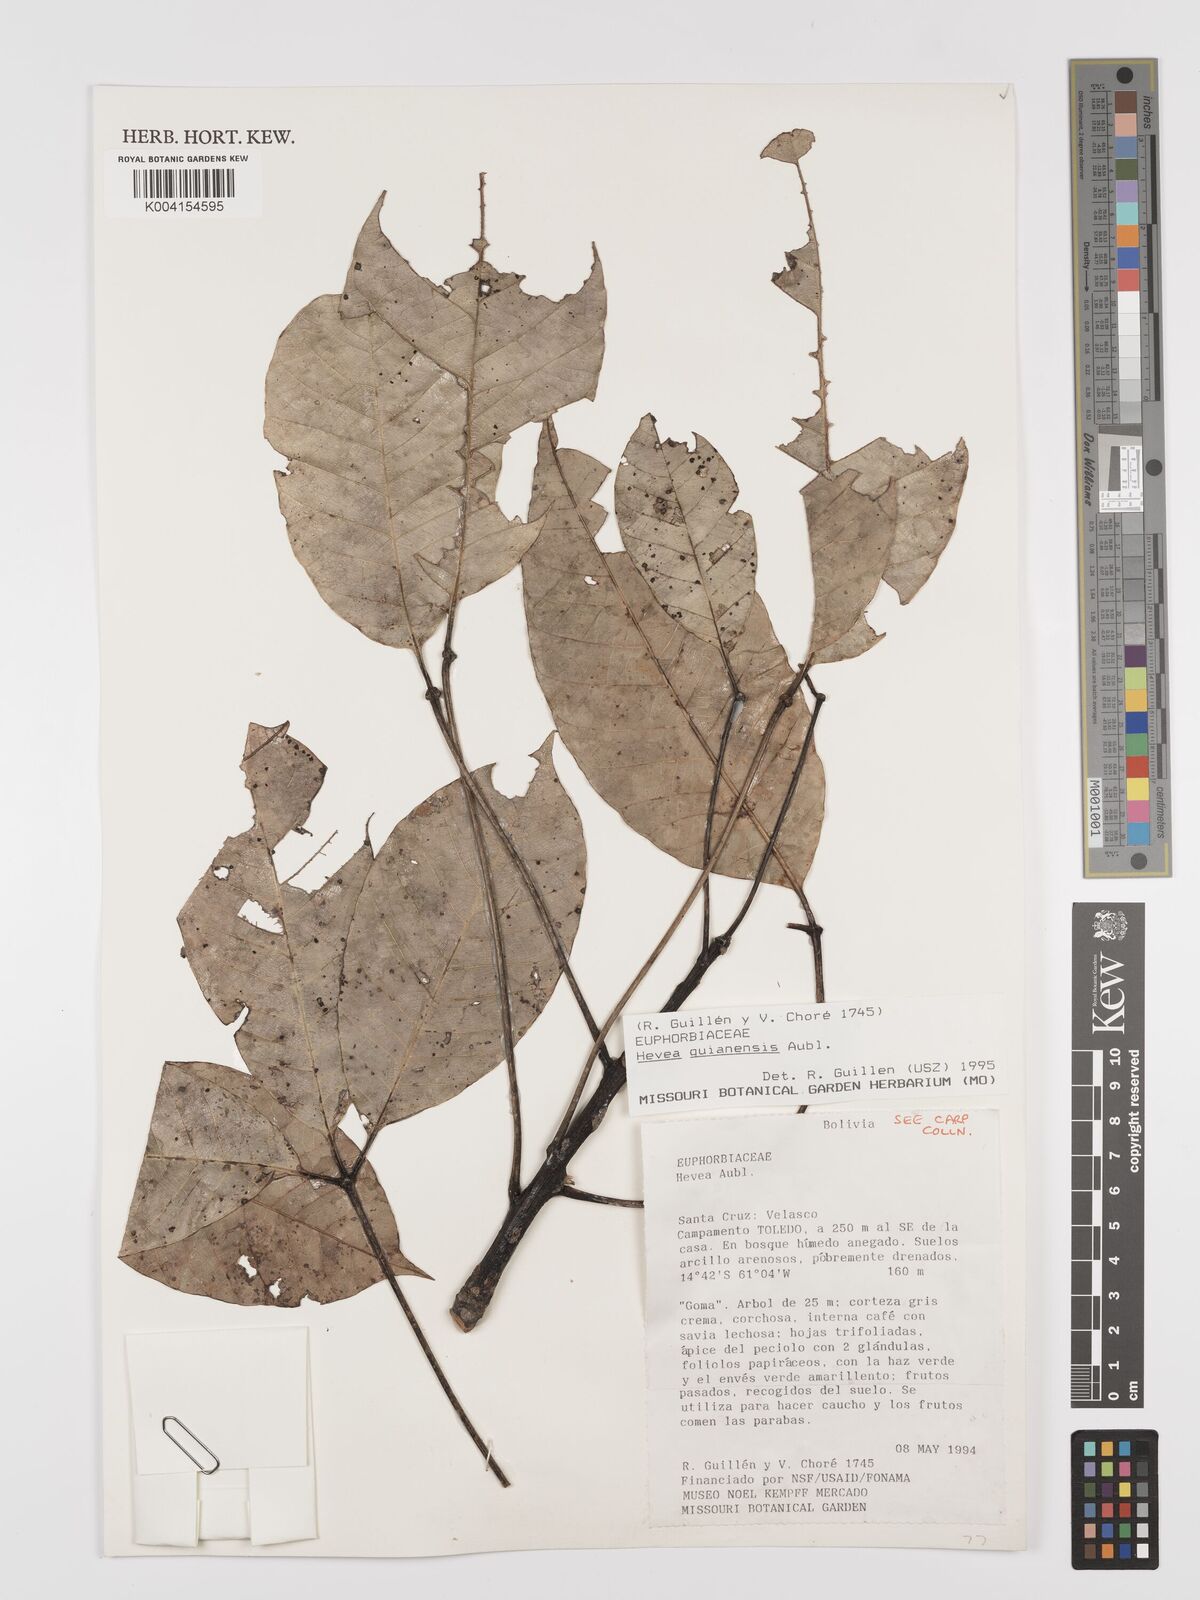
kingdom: Plantae
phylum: Tracheophyta
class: Magnoliopsida
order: Malpighiales
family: Euphorbiaceae
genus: Hevea
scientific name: Hevea guianensis
